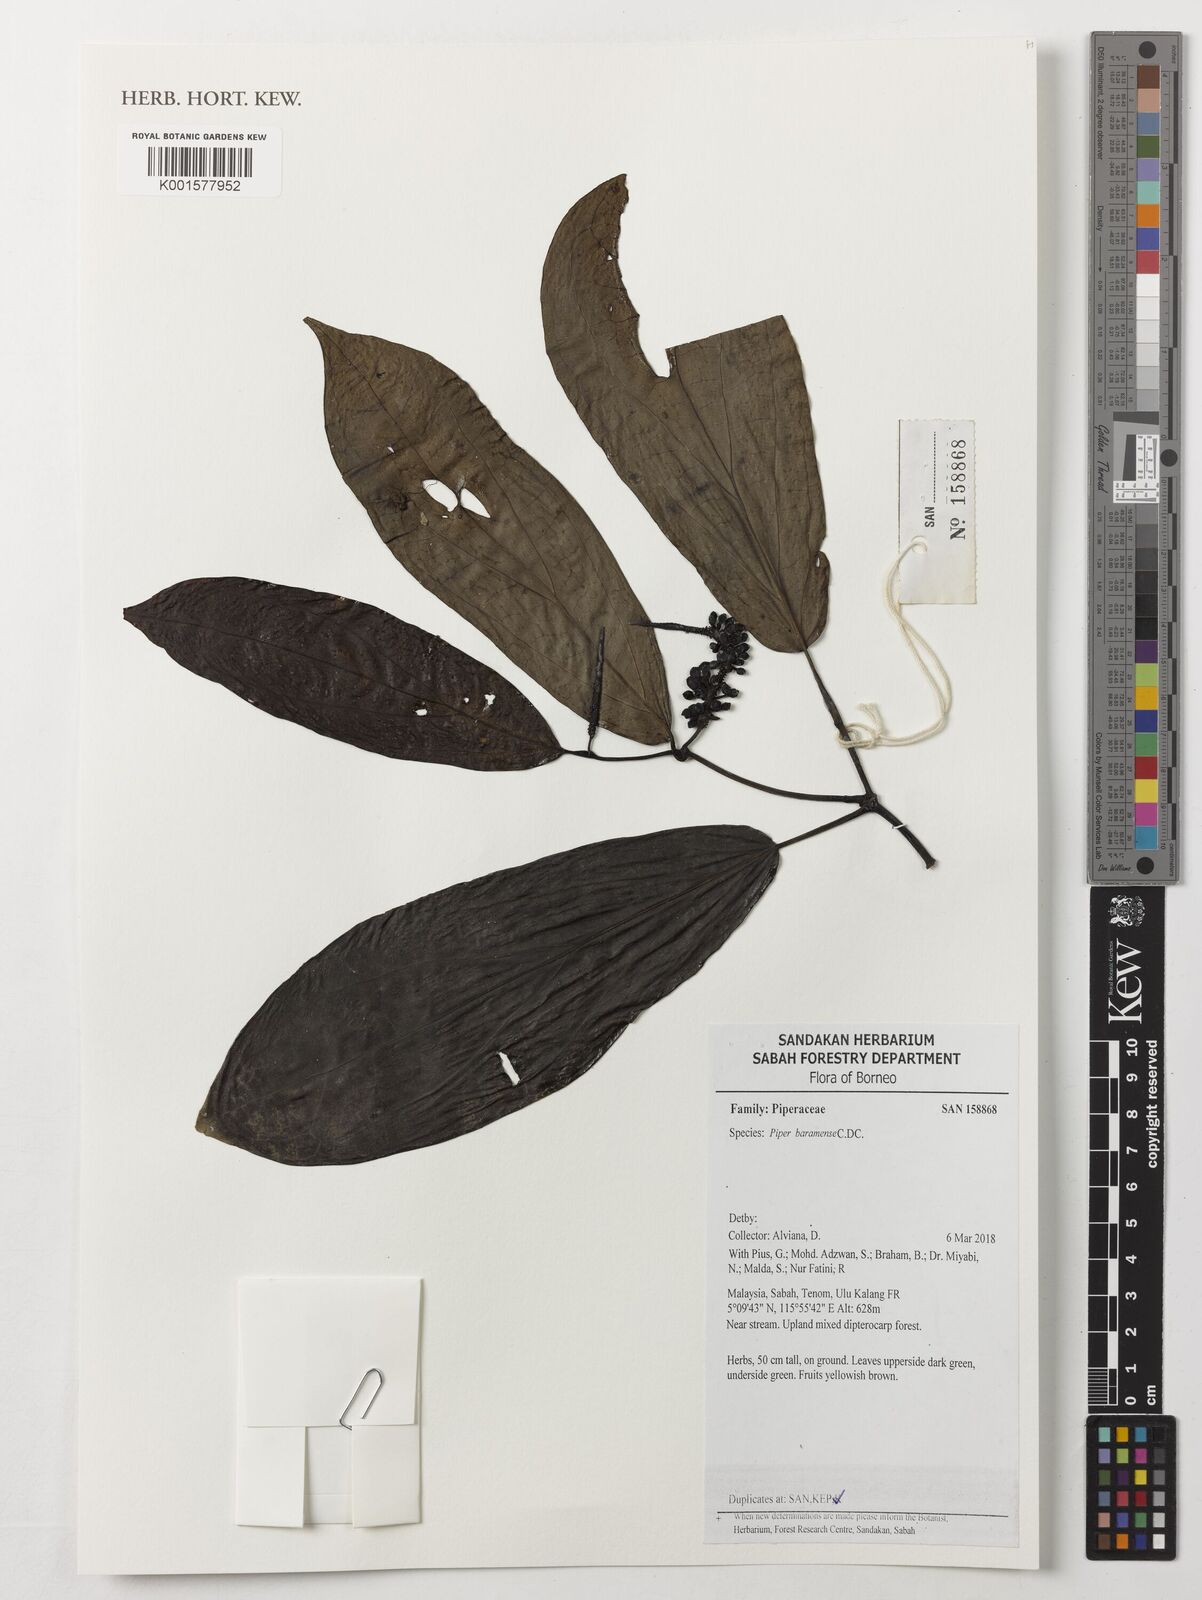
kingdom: Plantae
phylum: Tracheophyta
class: Magnoliopsida
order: Piperales
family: Piperaceae
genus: Piper
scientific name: Piper baramense
